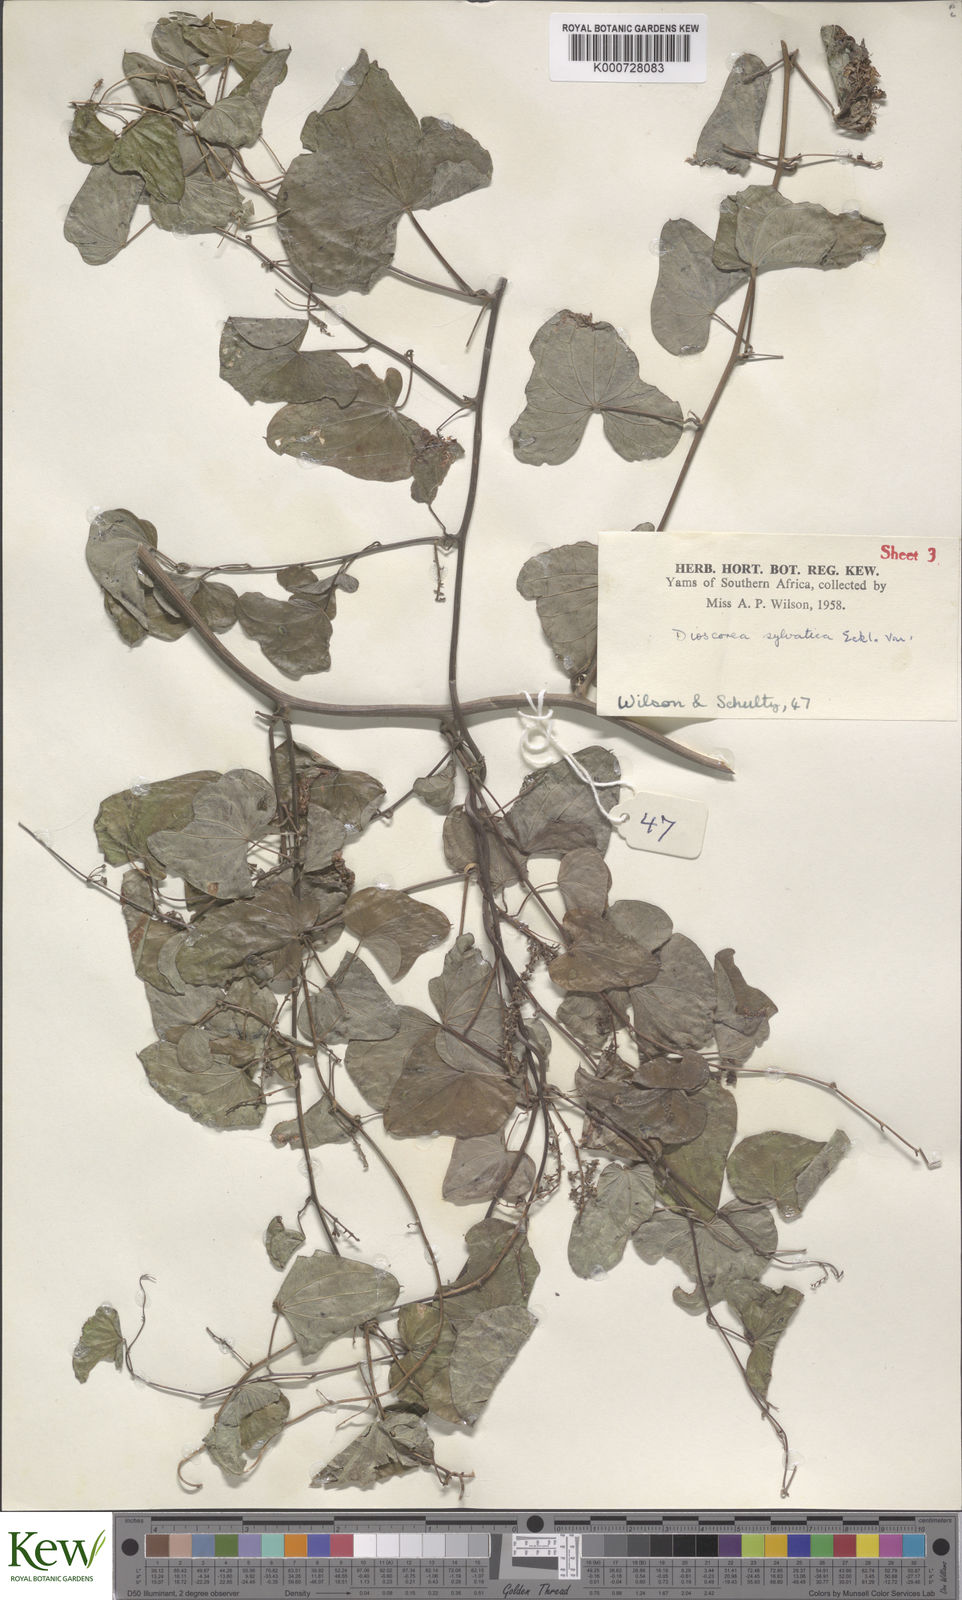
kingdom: Plantae
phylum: Tracheophyta
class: Liliopsida
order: Dioscoreales
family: Dioscoreaceae
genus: Dioscorea
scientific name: Dioscorea sylvatica
